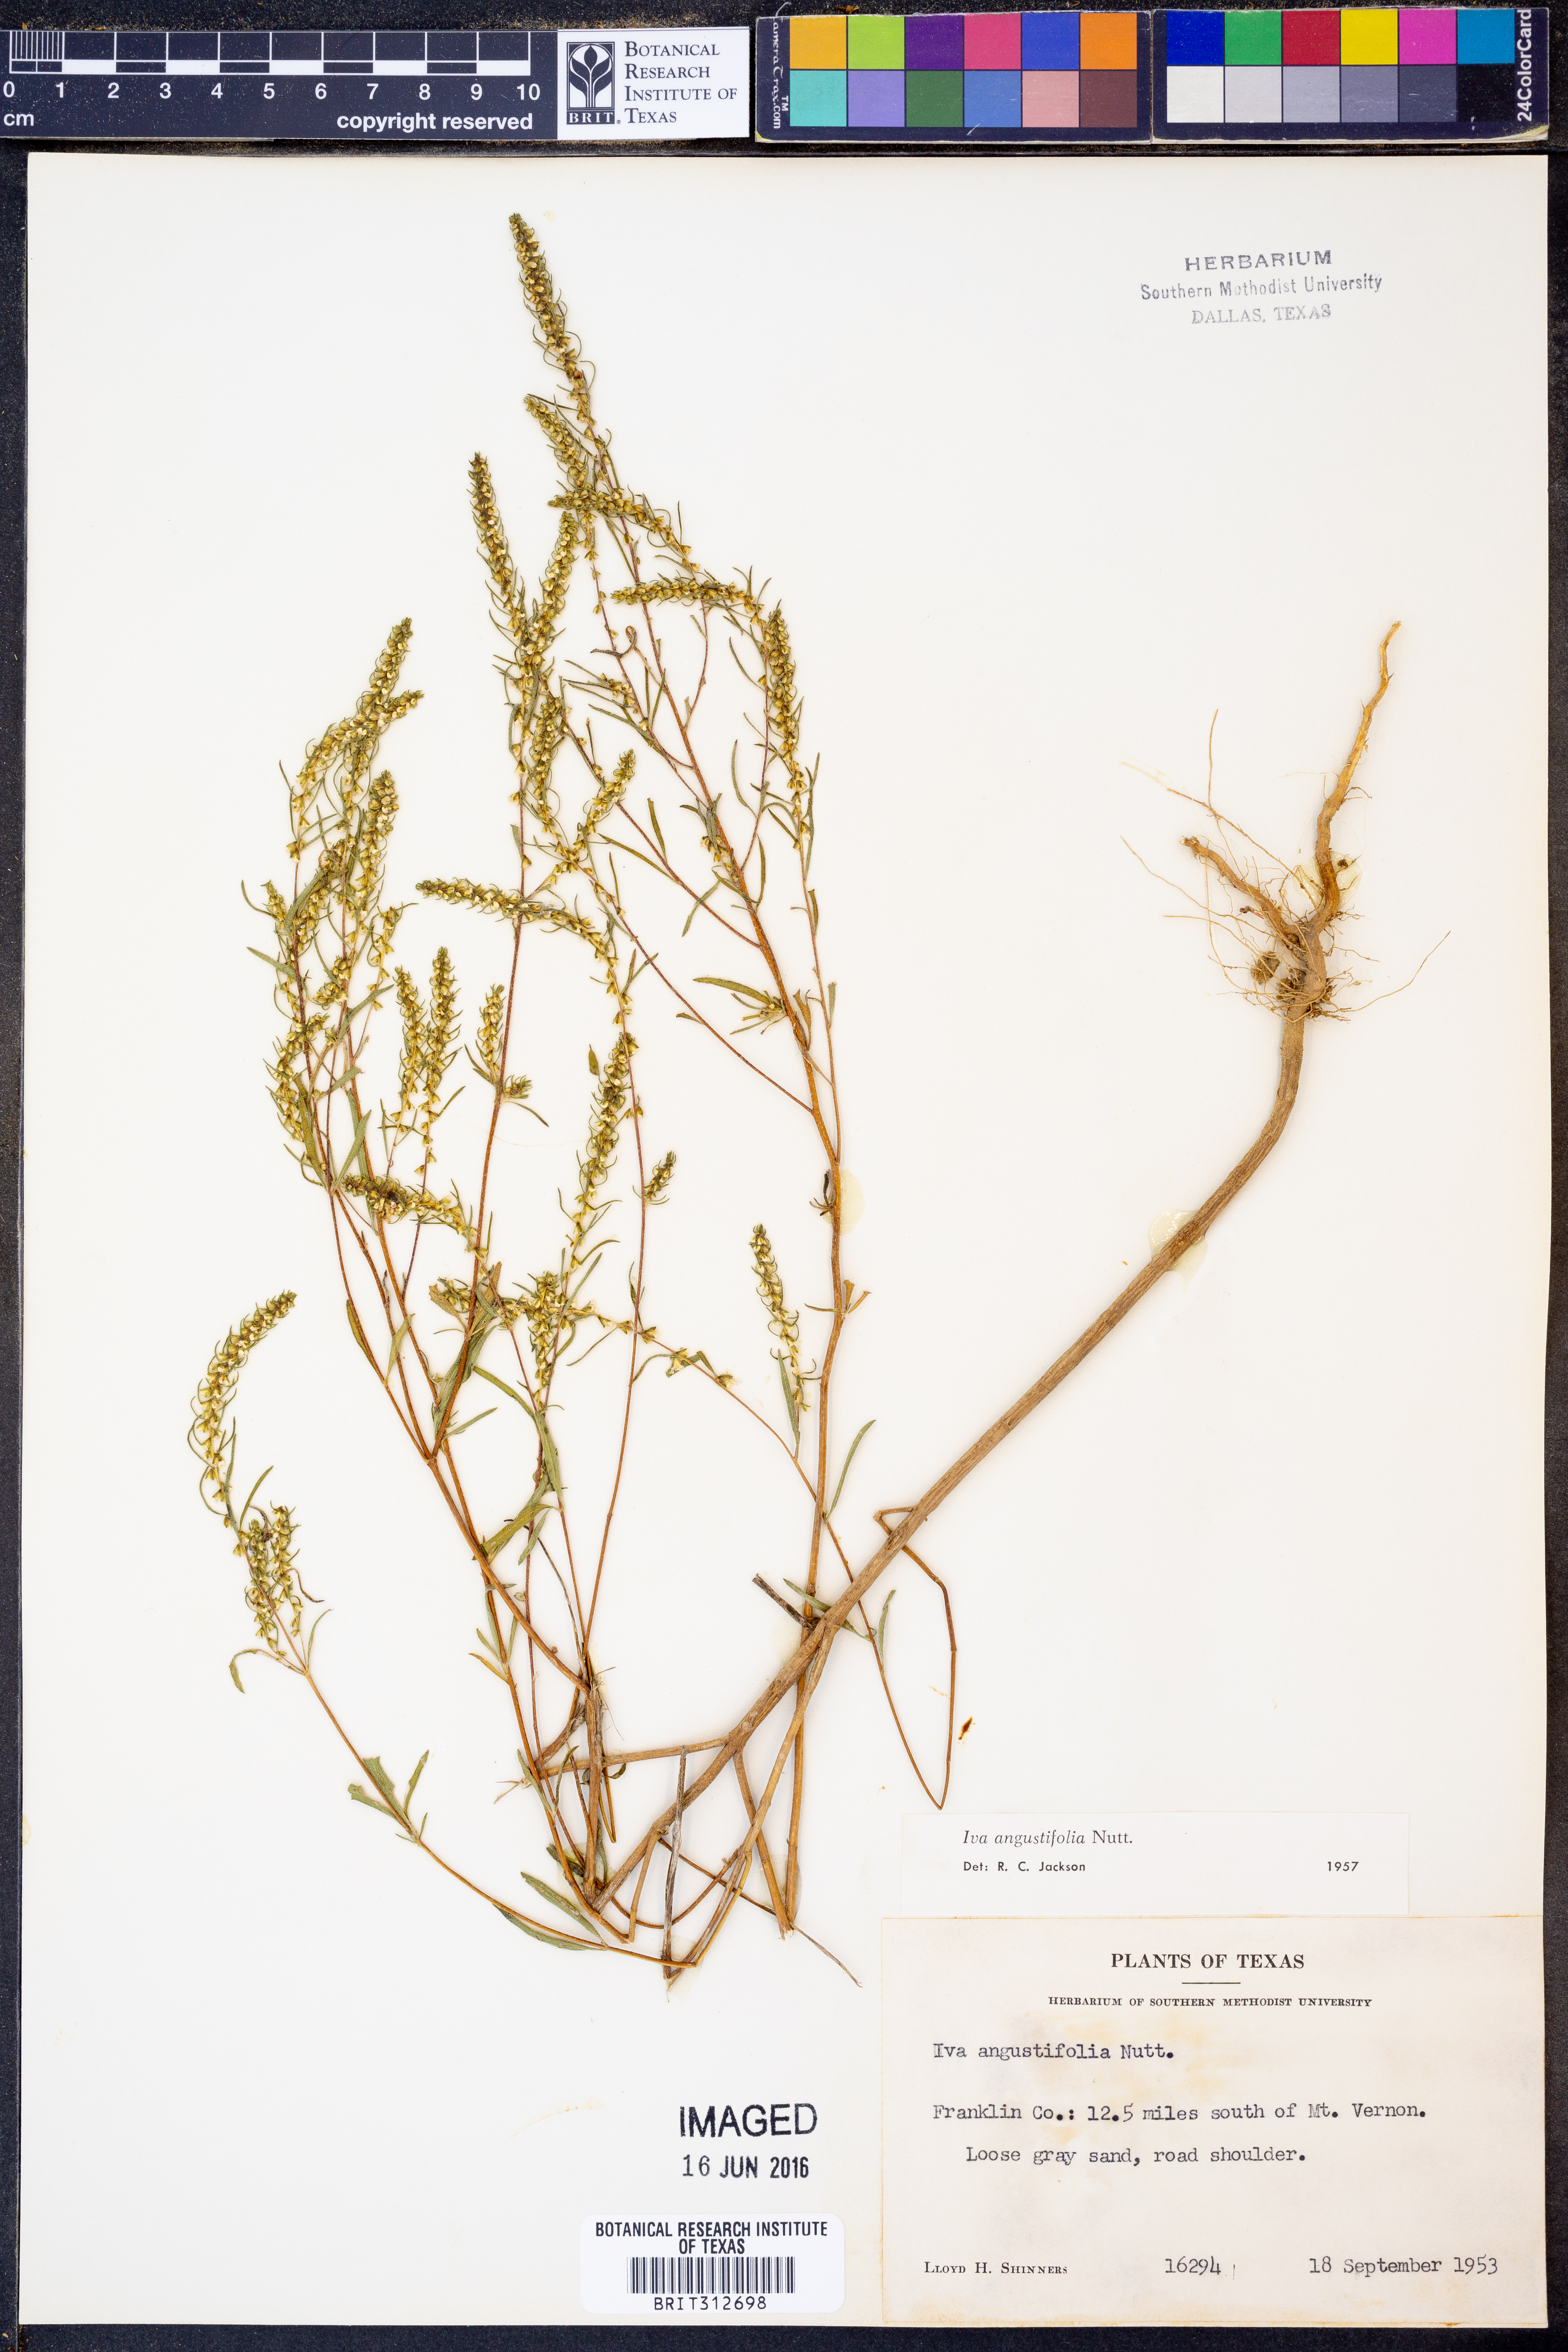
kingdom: Plantae
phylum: Tracheophyta
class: Magnoliopsida
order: Asterales
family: Asteraceae
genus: Iva
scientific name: Iva asperifolia
